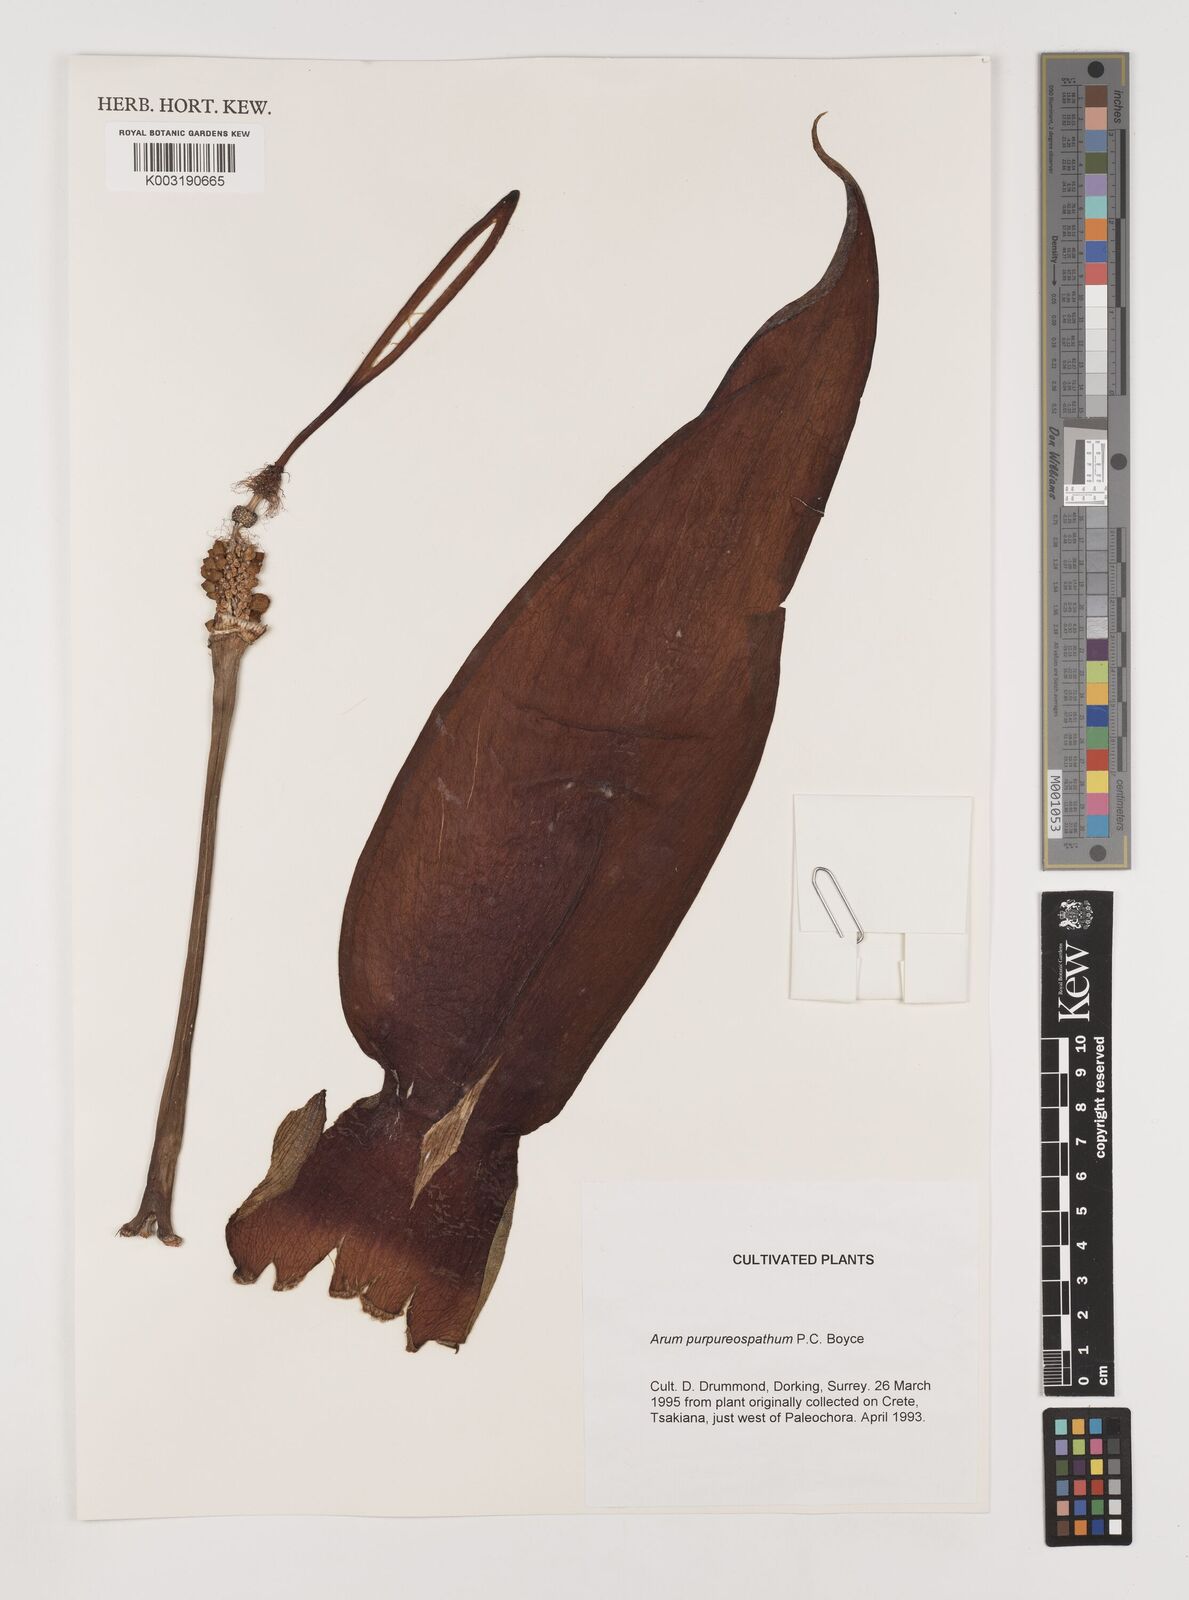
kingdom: Plantae
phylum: Tracheophyta
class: Liliopsida
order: Alismatales
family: Araceae
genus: Arum
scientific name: Arum purpureospathum
